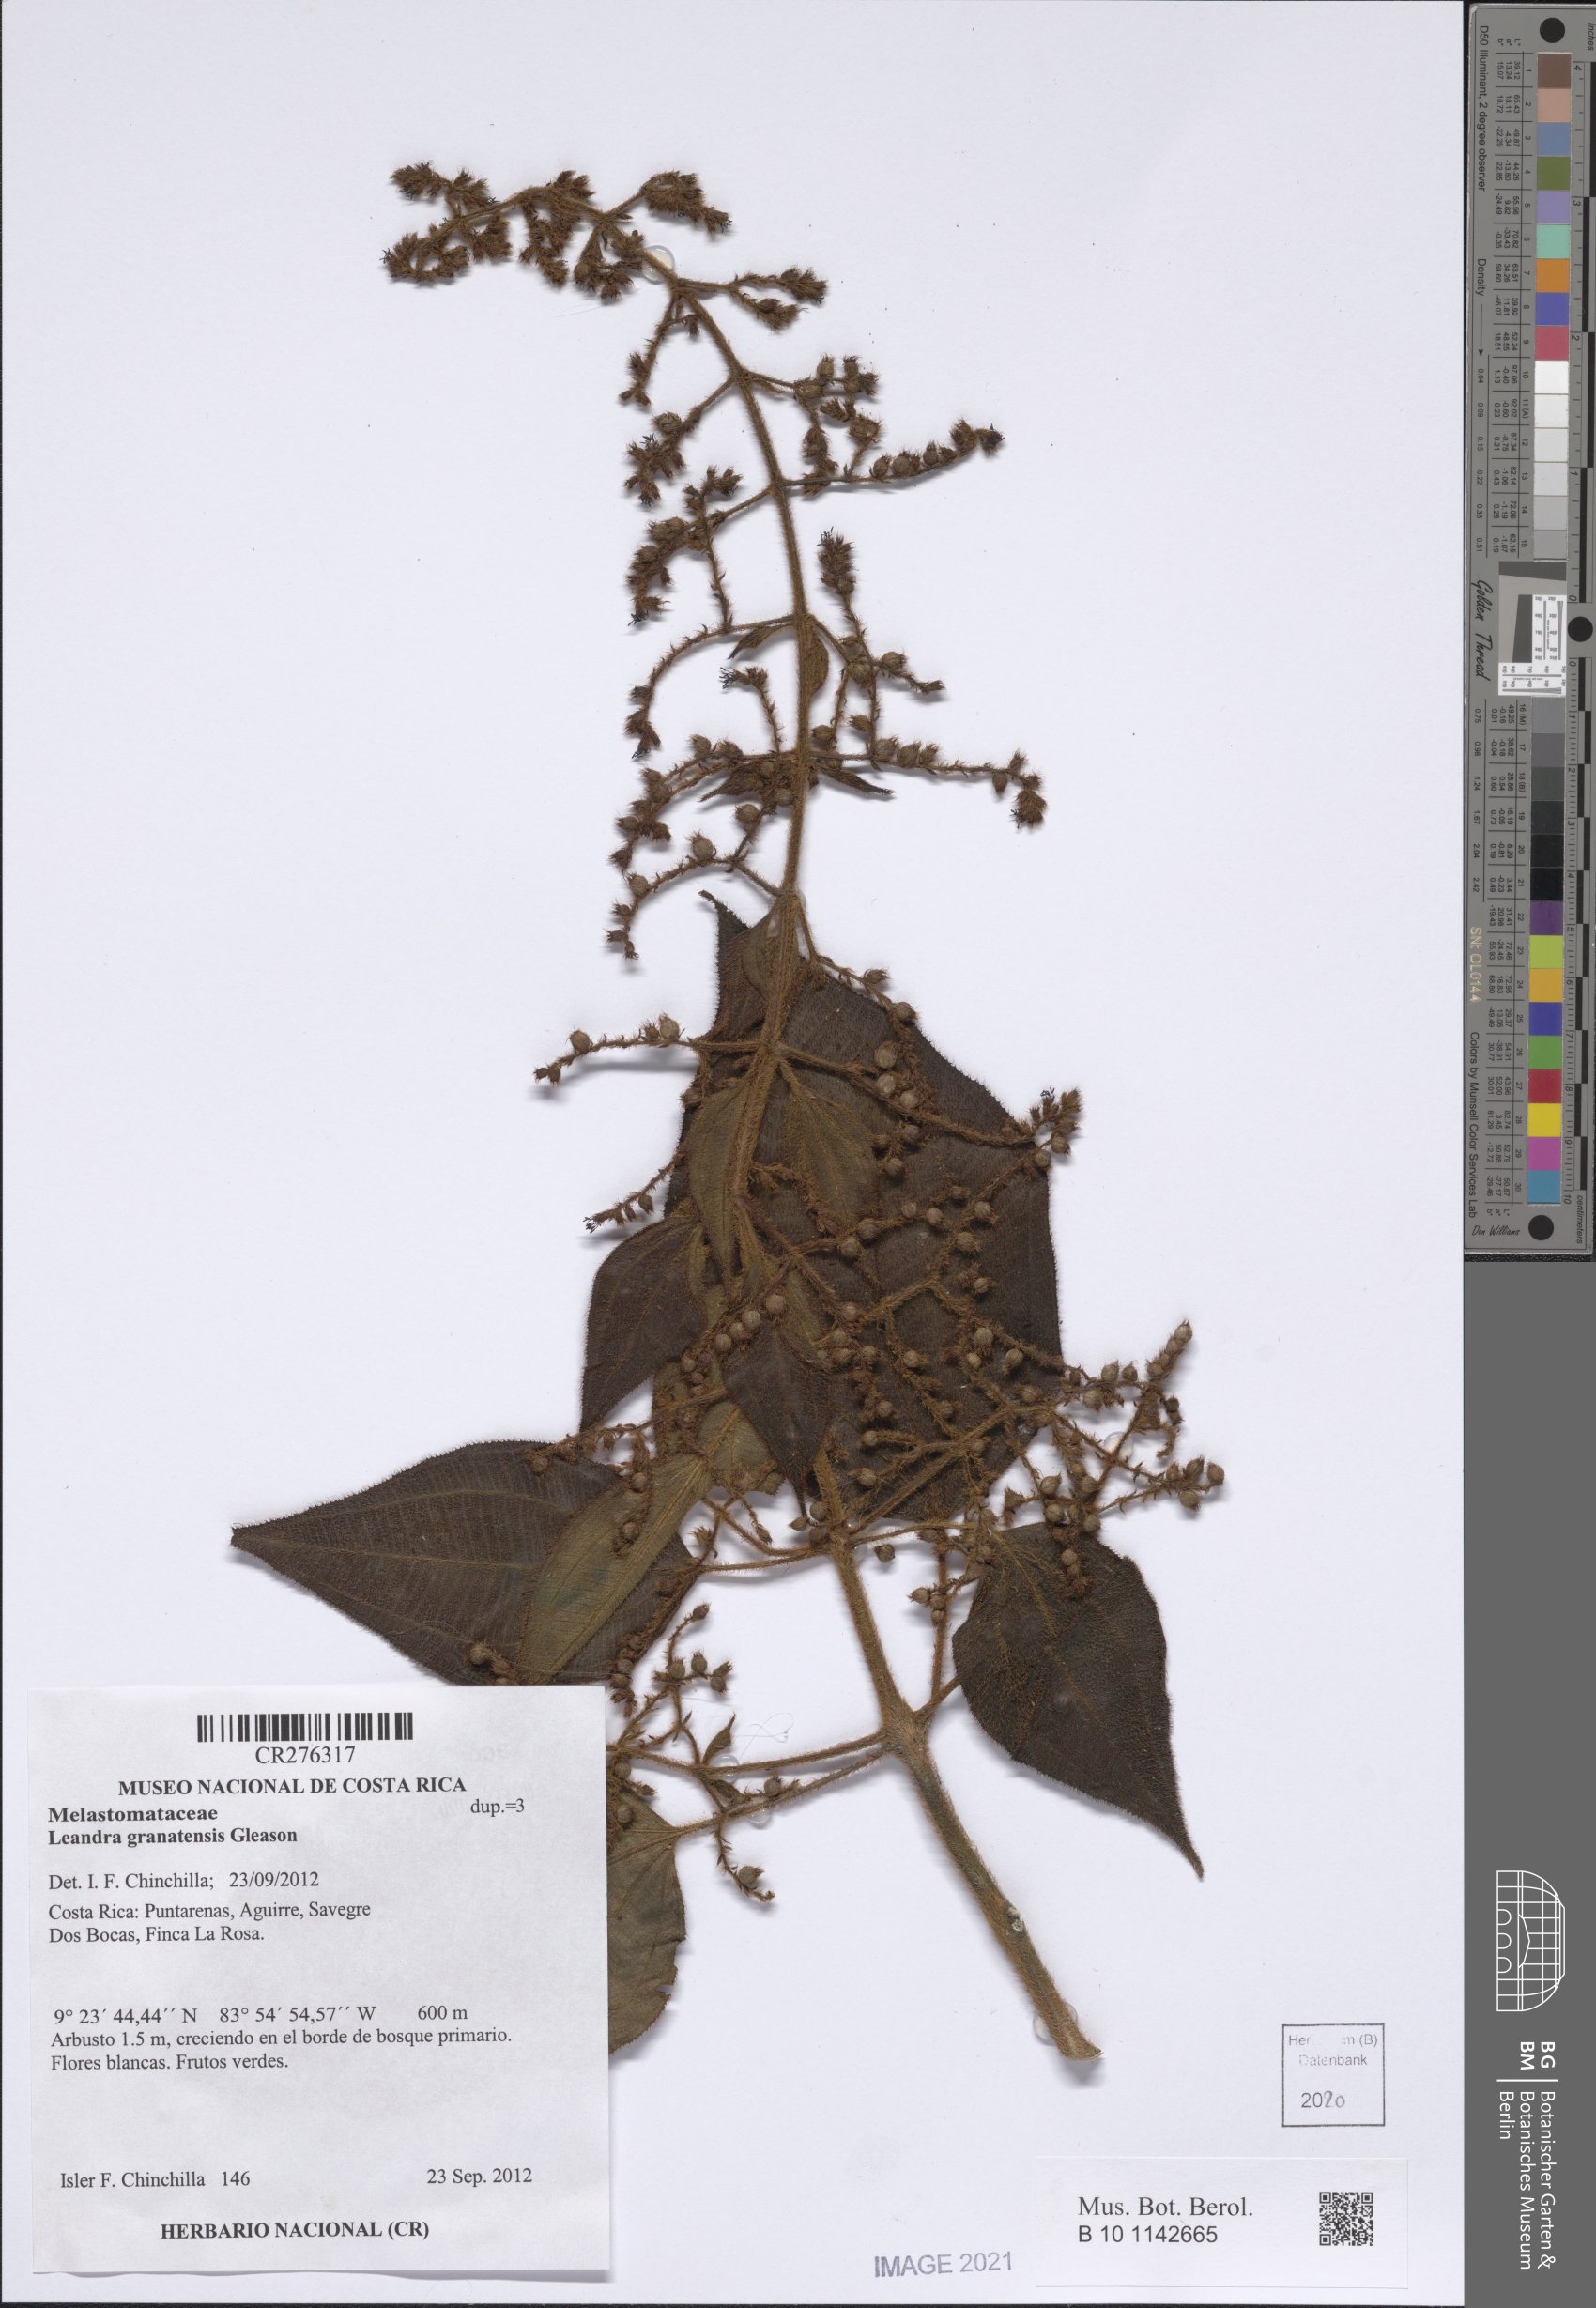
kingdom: Plantae
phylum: Tracheophyta
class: Magnoliopsida
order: Myrtales
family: Melastomataceae
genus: Miconia
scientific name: Miconia granatensis
